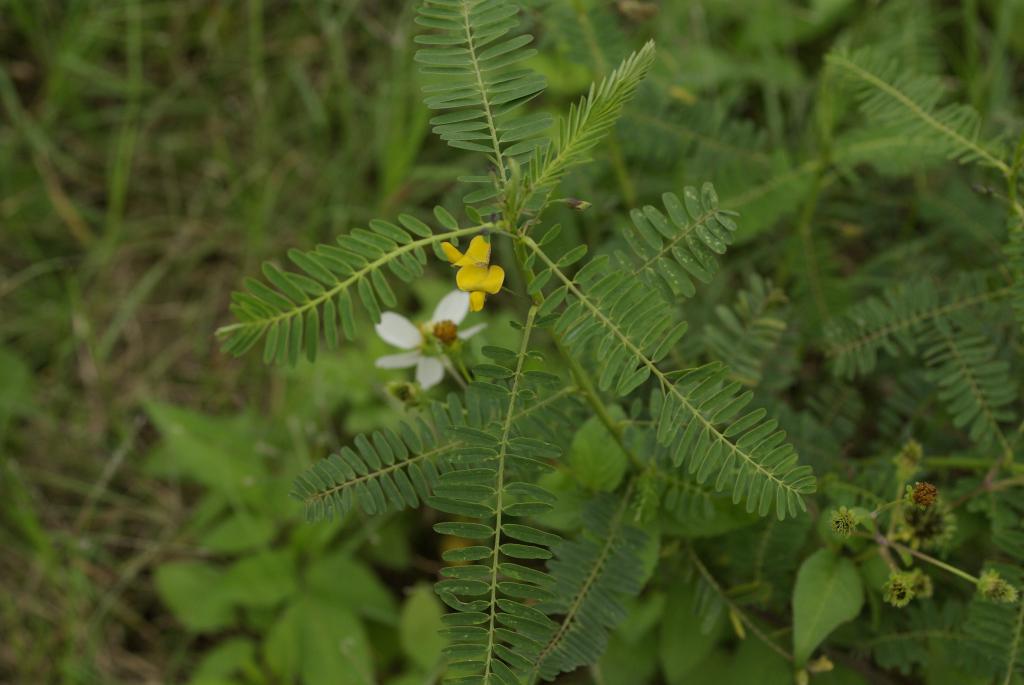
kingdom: Plantae
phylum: Tracheophyta
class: Magnoliopsida
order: Fabales
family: Fabaceae
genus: Sesbania
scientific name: Sesbania cannabina
